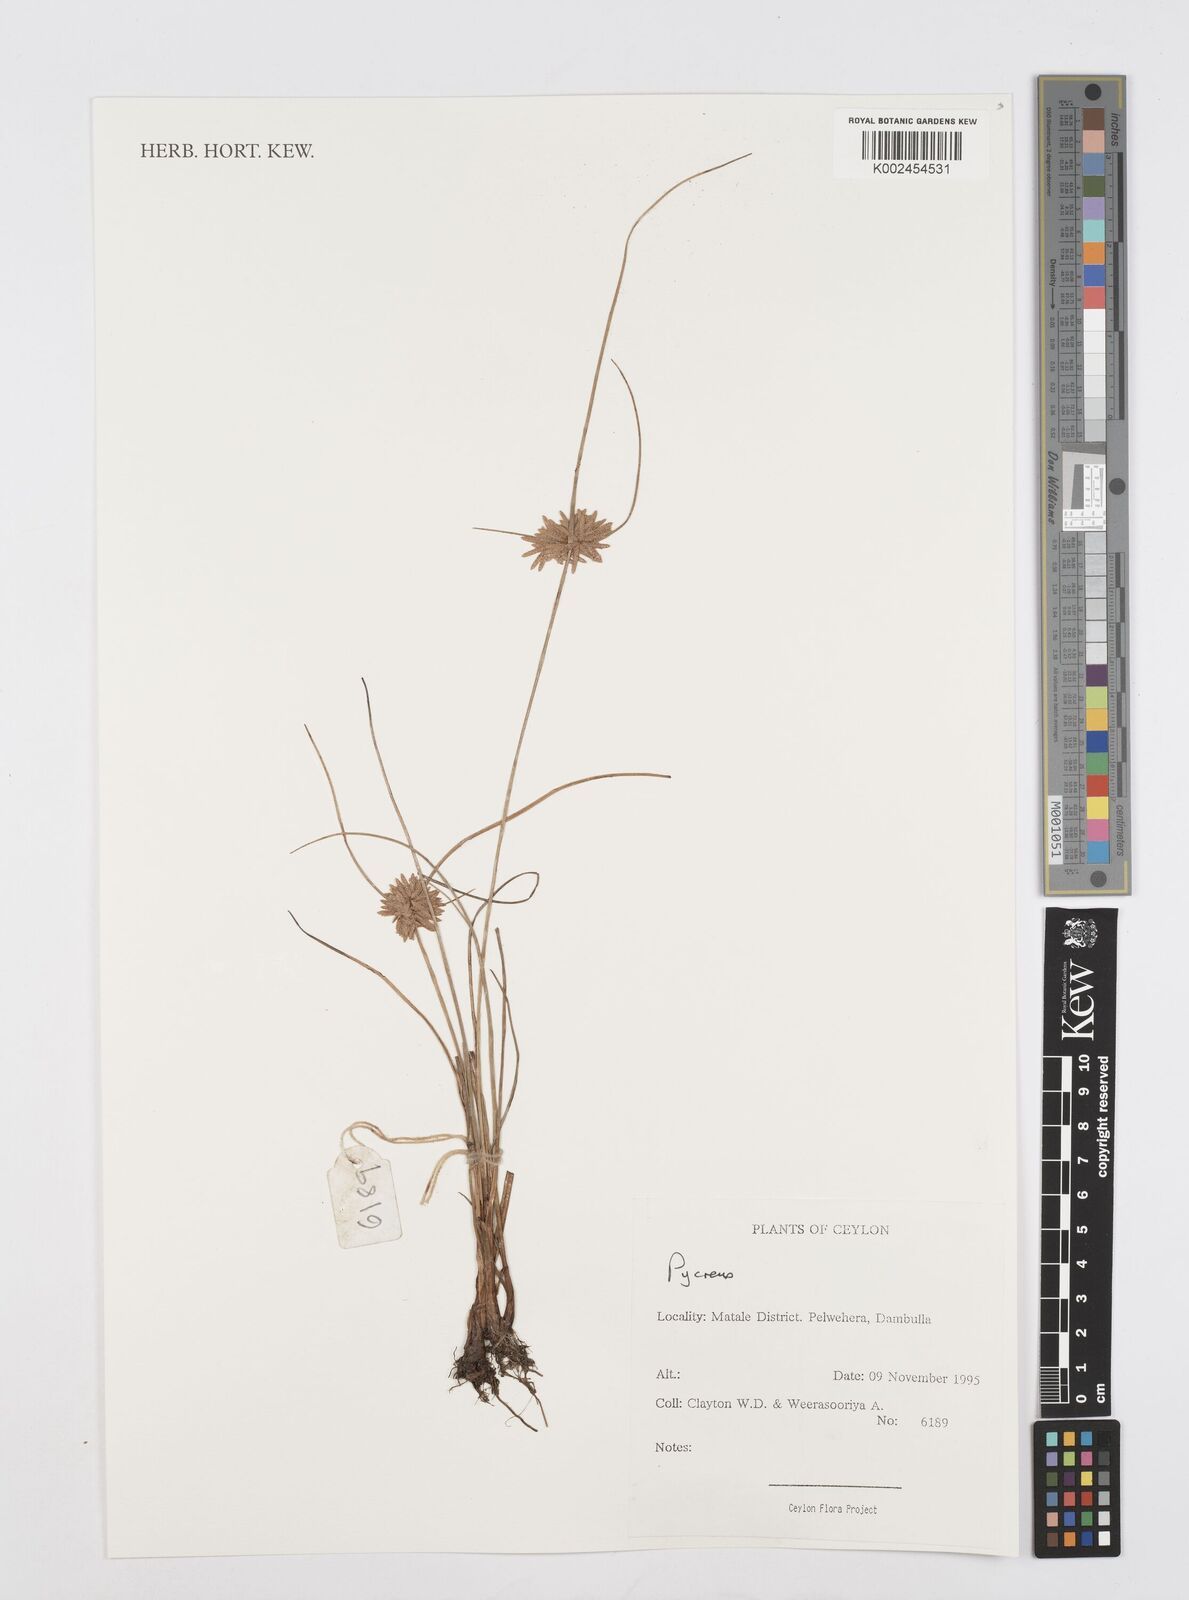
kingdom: Plantae
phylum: Tracheophyta
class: Liliopsida
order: Poales
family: Cyperaceae
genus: Cyperus
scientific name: Cyperus
